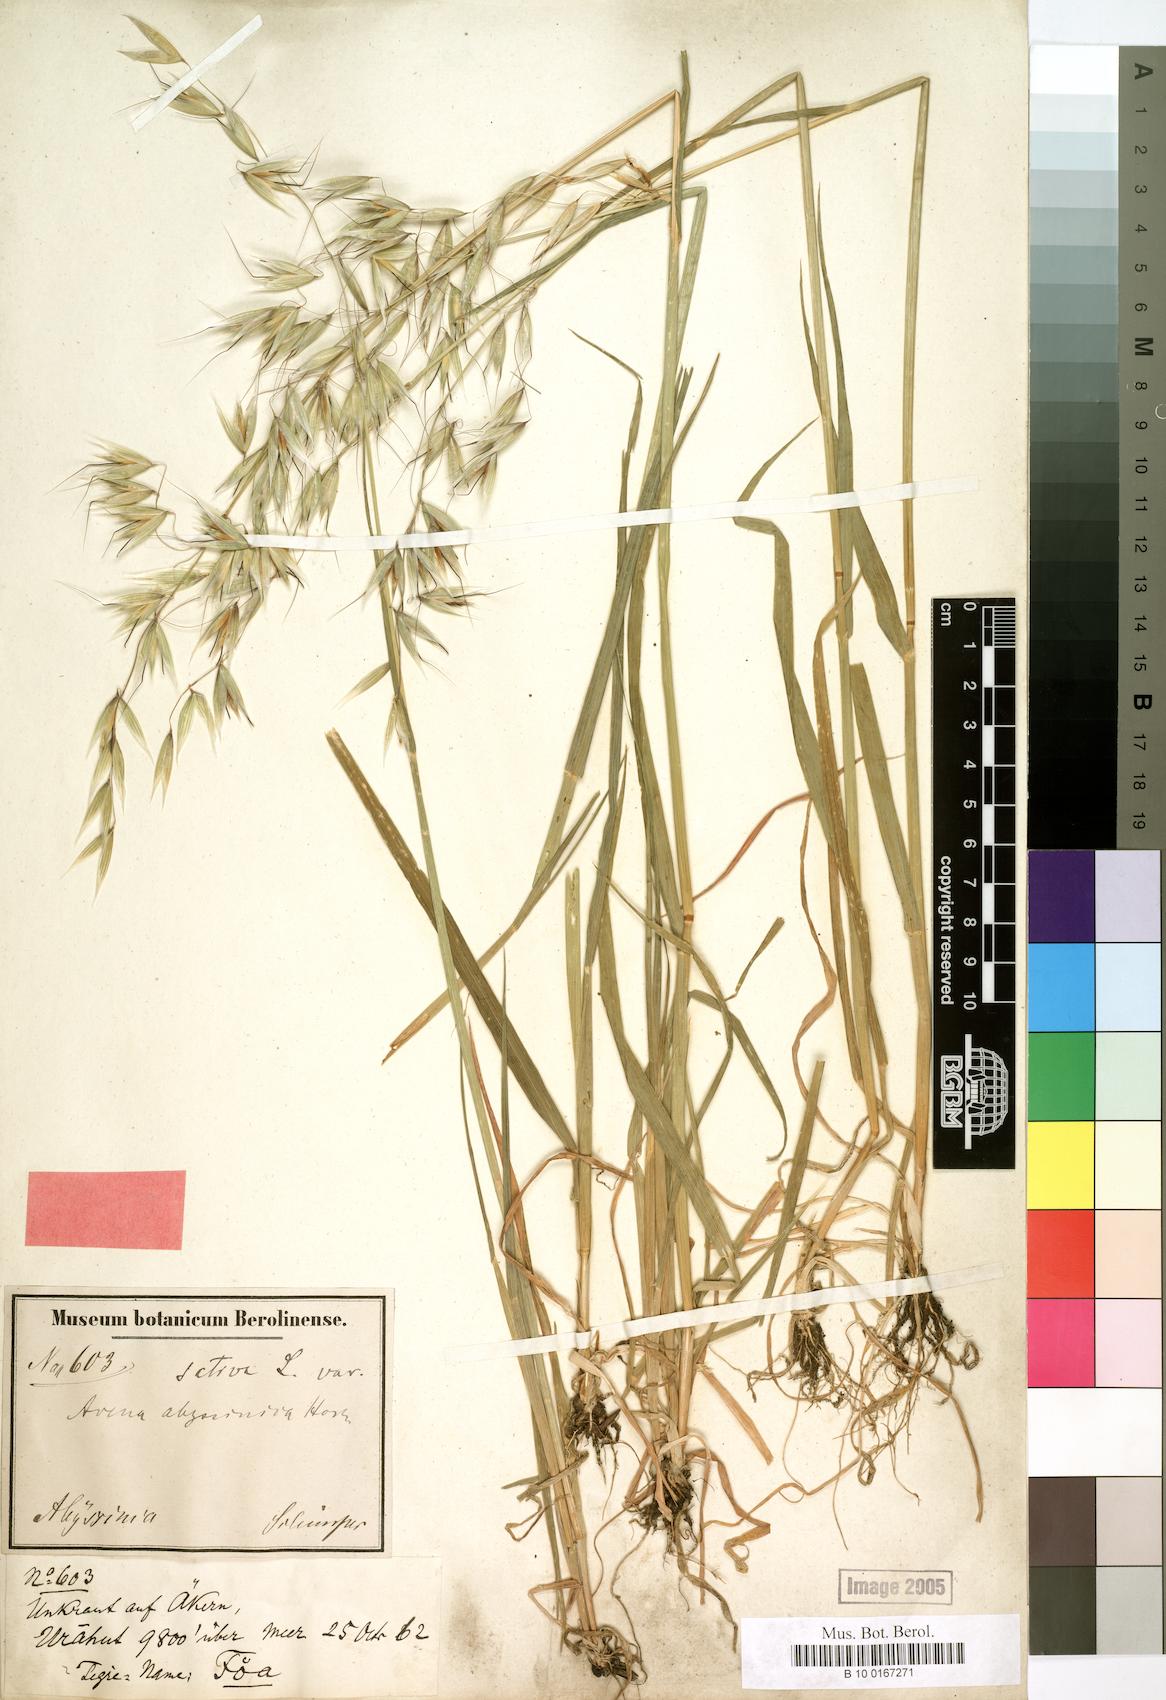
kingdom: Plantae
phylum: Tracheophyta
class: Liliopsida
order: Poales
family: Poaceae
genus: Avena
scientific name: Avena abyssinica
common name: Ethiopian oat
